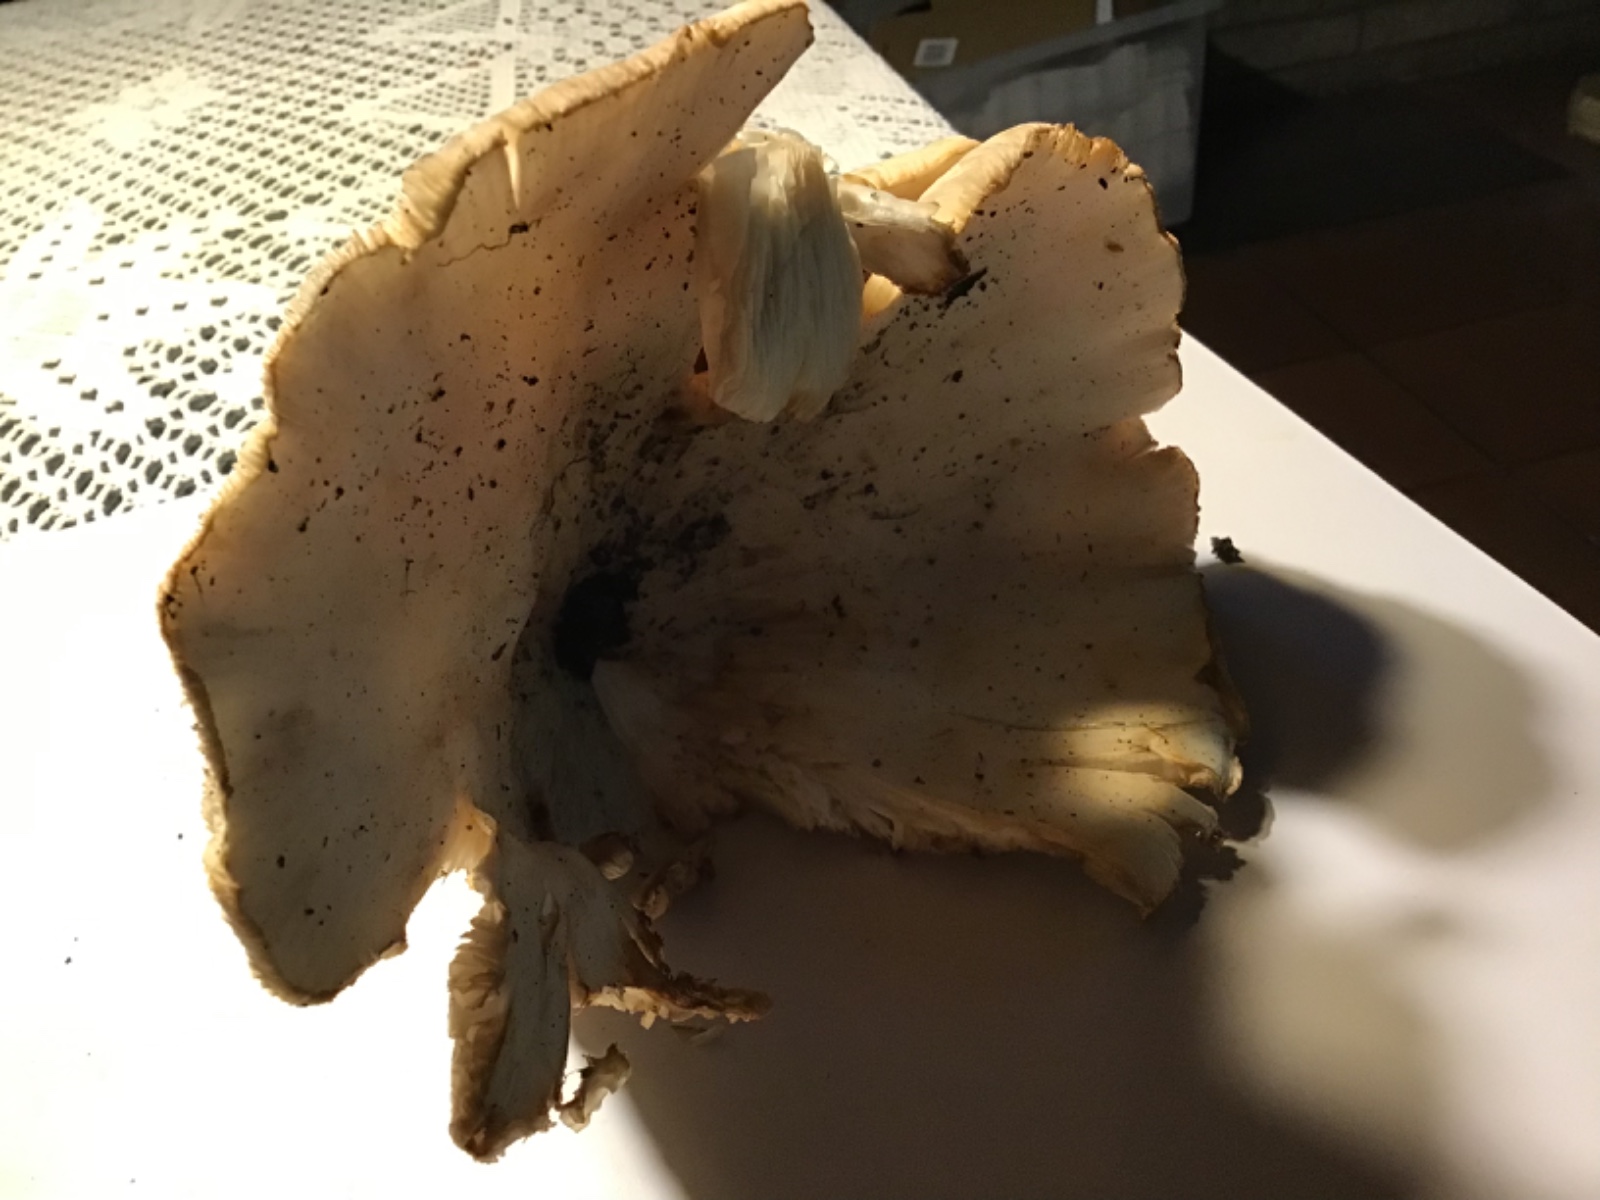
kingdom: Fungi
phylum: Basidiomycota
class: Agaricomycetes
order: Agaricales
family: Tricholomataceae
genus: Aspropaxillus
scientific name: Aspropaxillus giganteus
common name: kæmpe-tragtridderhat
